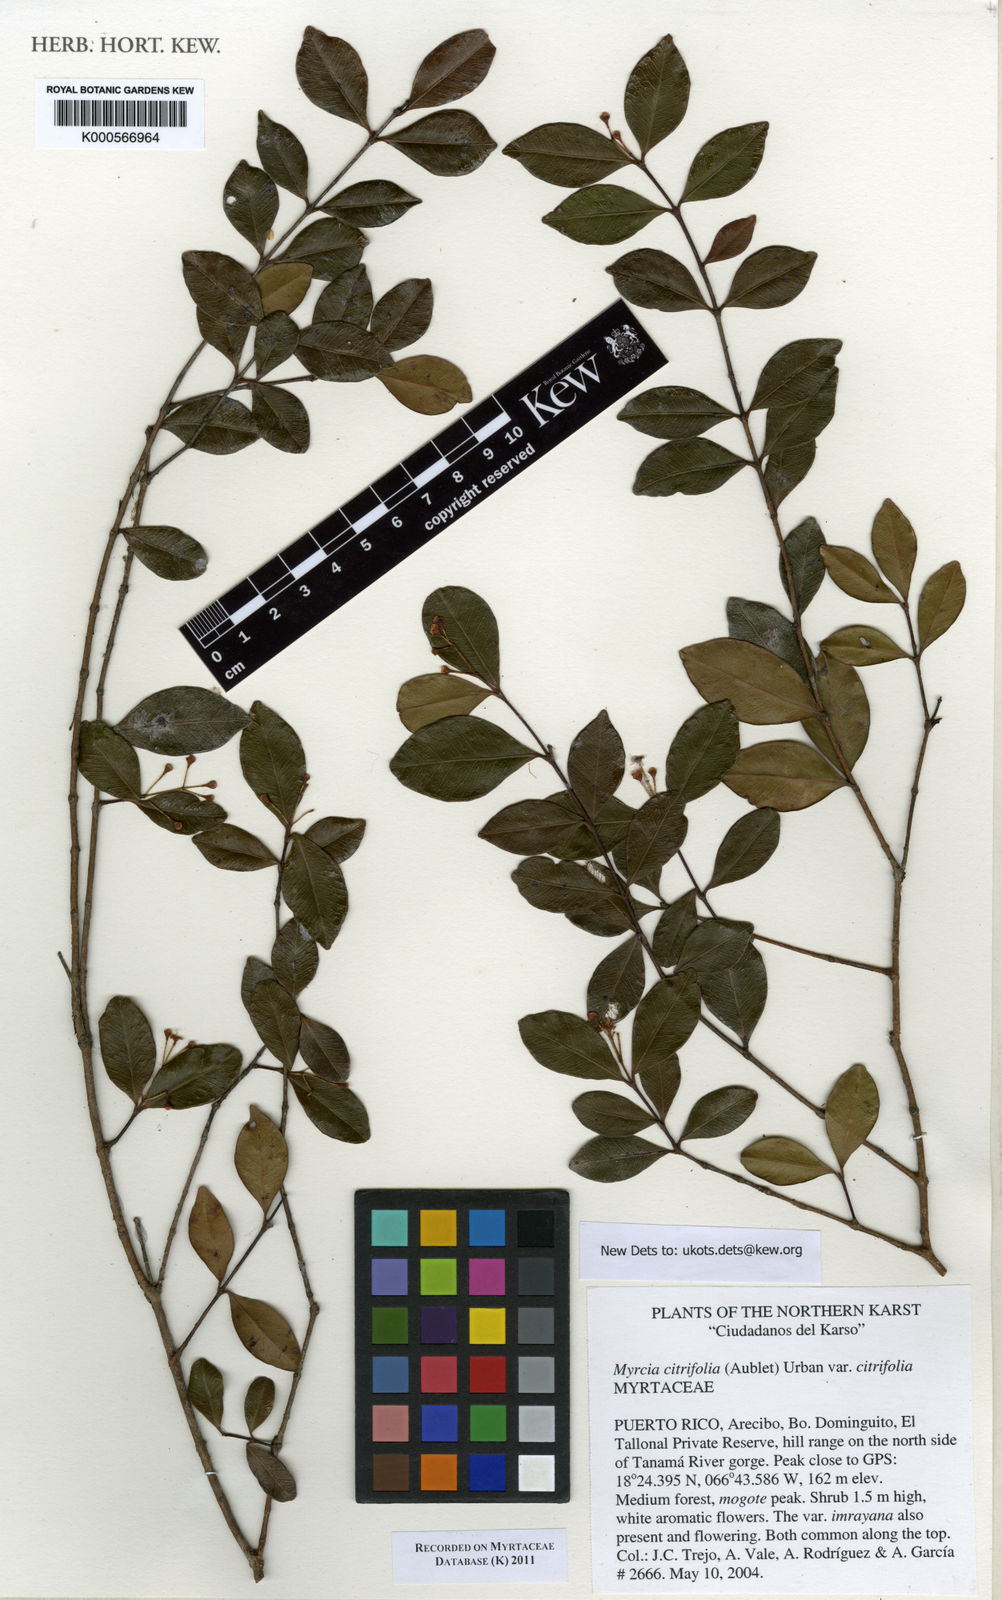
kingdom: Plantae
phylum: Tracheophyta
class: Magnoliopsida
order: Myrtales
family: Myrtaceae
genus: Myrcia
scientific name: Myrcia guianensis
